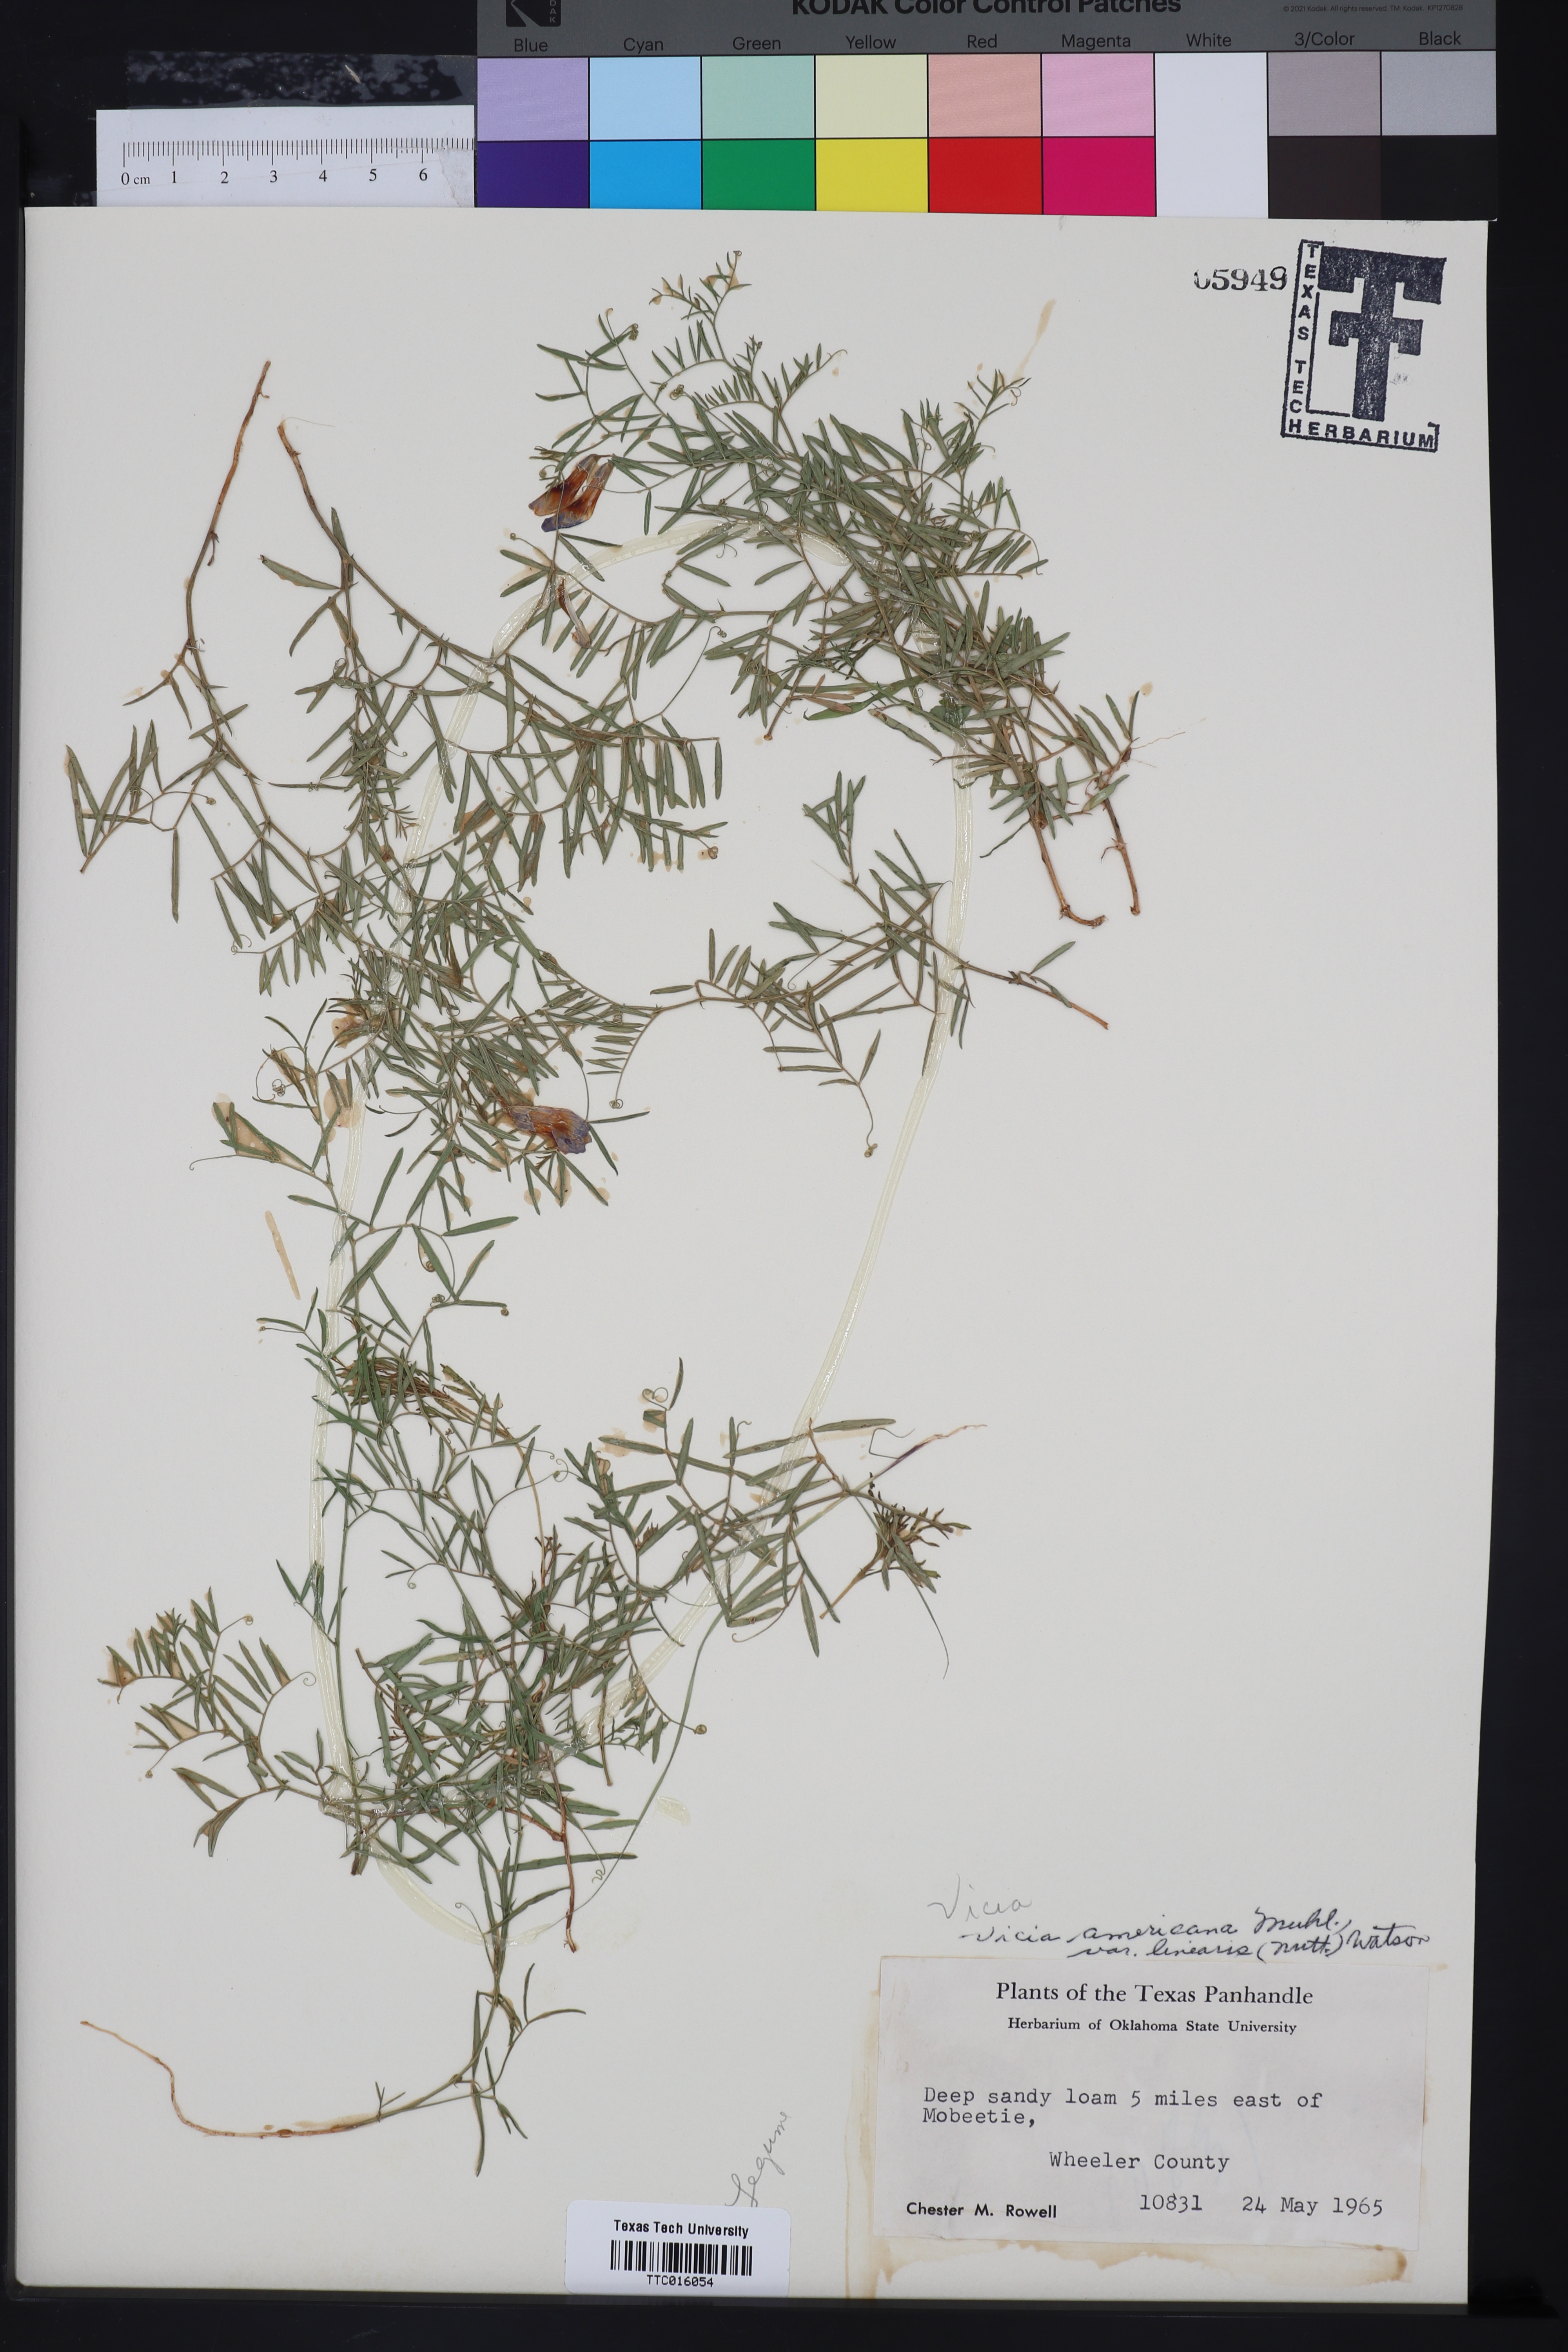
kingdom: Plantae
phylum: Tracheophyta
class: Magnoliopsida
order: Fabales
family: Fabaceae
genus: Vicia
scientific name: Vicia americana
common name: American vetch
